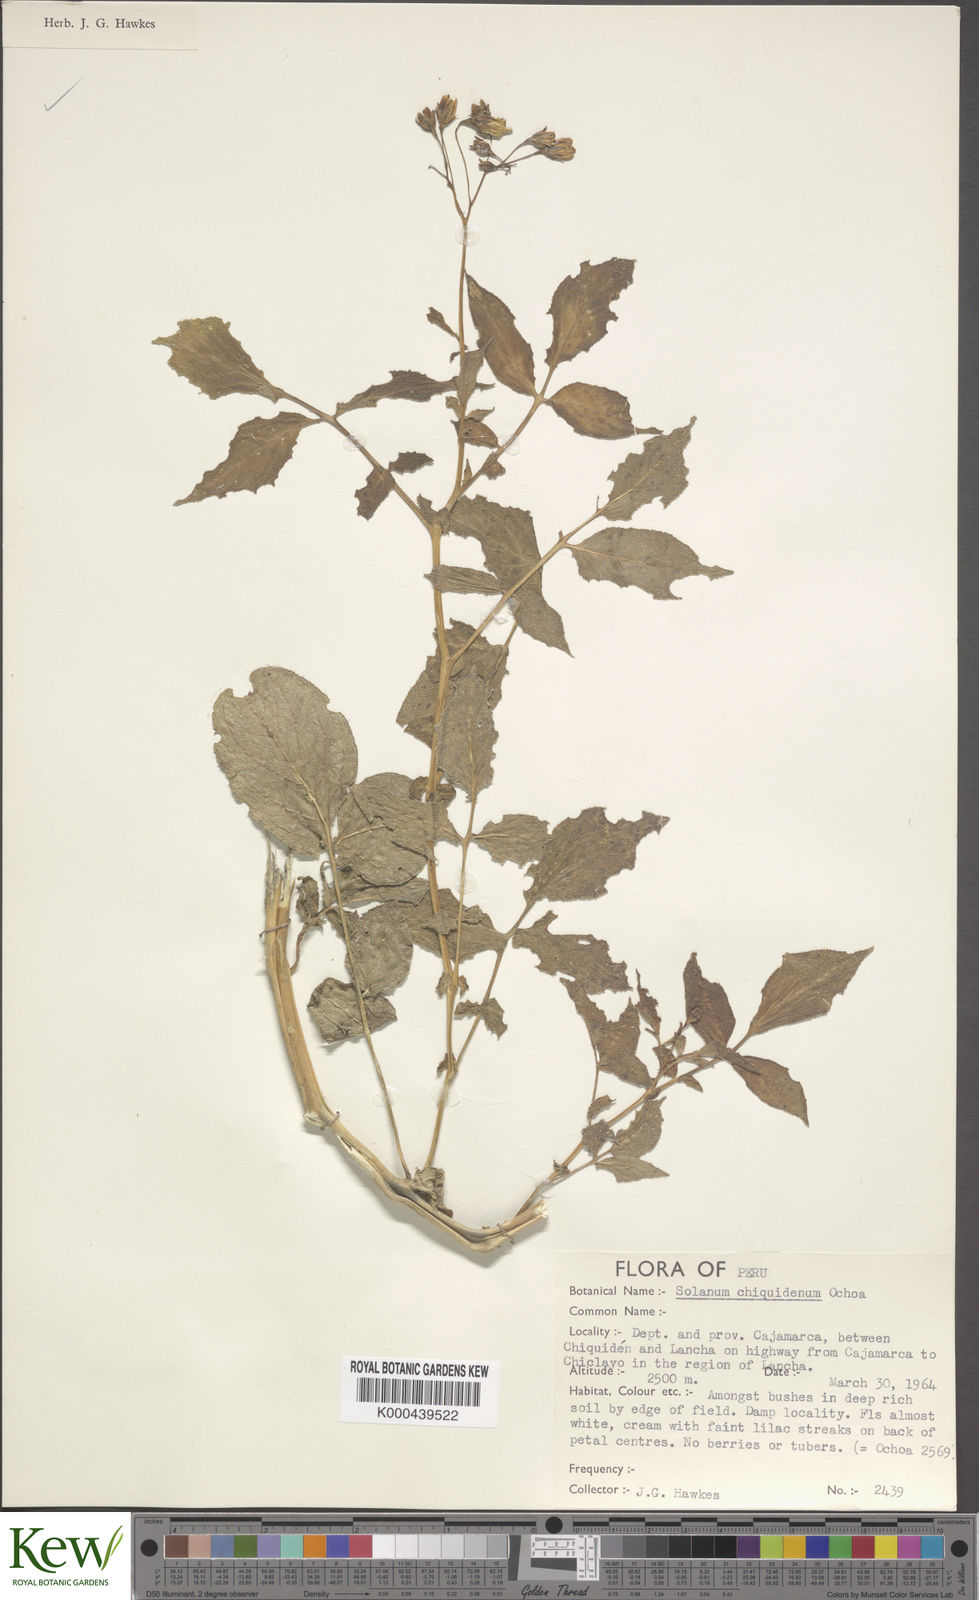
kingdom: Plantae
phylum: Tracheophyta
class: Magnoliopsida
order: Solanales
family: Solanaceae
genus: Solanum
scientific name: Solanum chiquidenum
